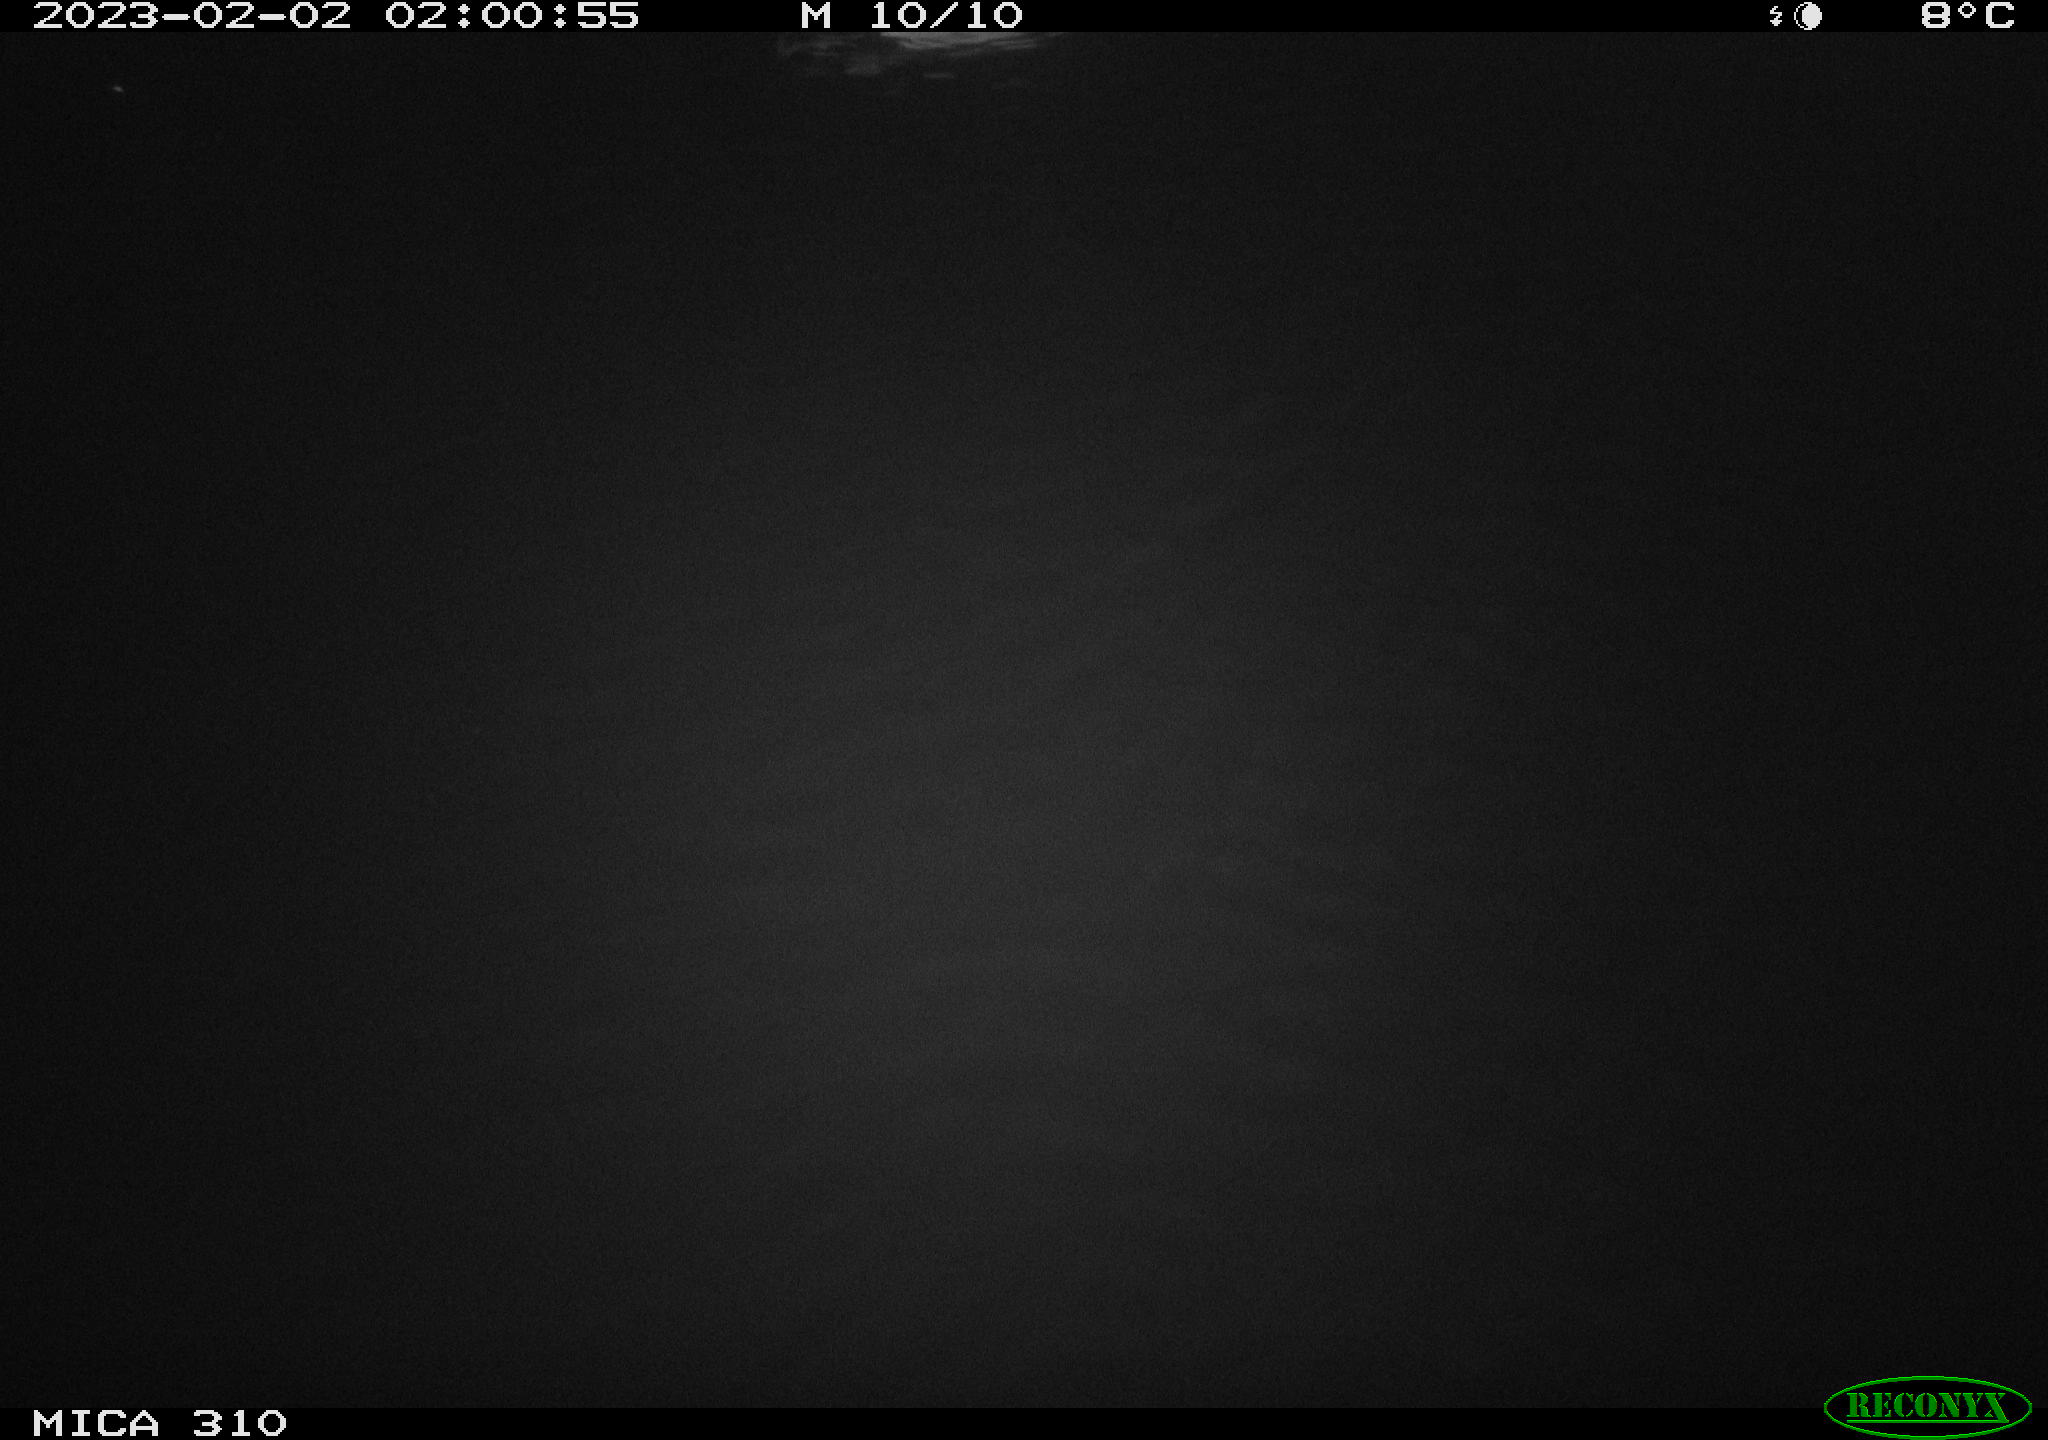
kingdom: Animalia
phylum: Chordata
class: Mammalia
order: Rodentia
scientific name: Rodentia
